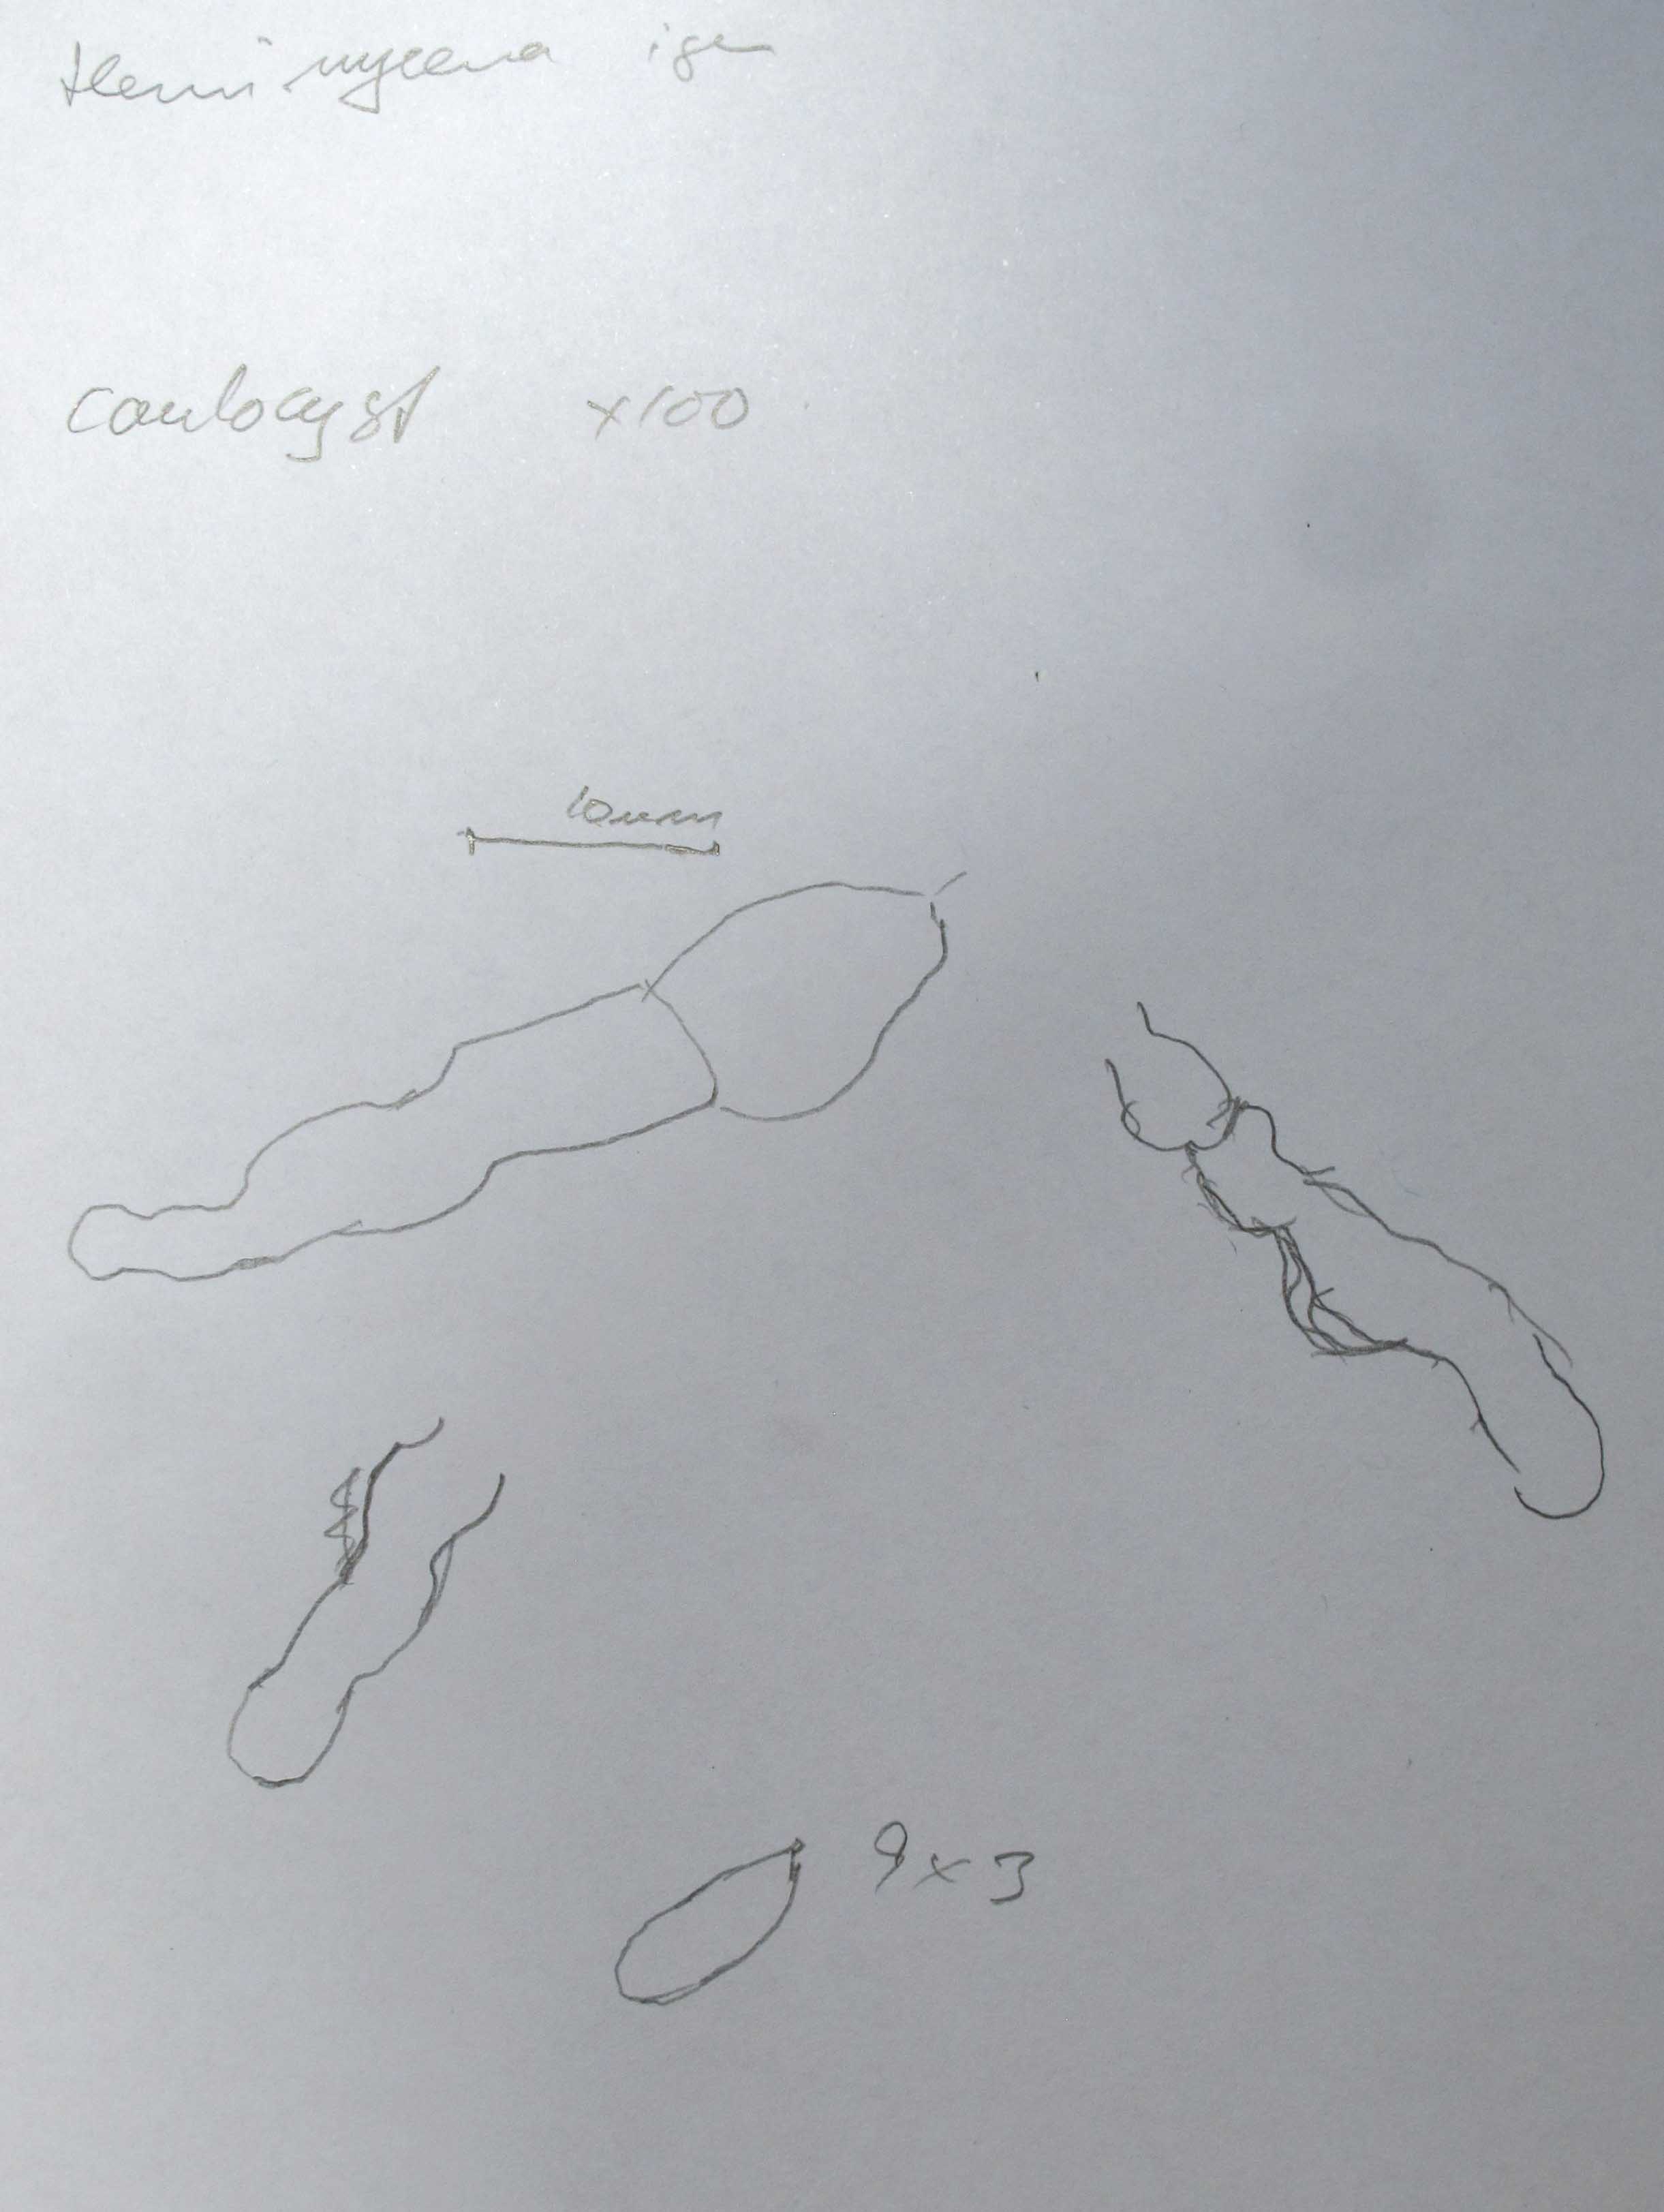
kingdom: Fungi
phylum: Basidiomycota
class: Agaricomycetes
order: Agaricales
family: Mycenaceae
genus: Hemimycena
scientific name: Hemimycena
